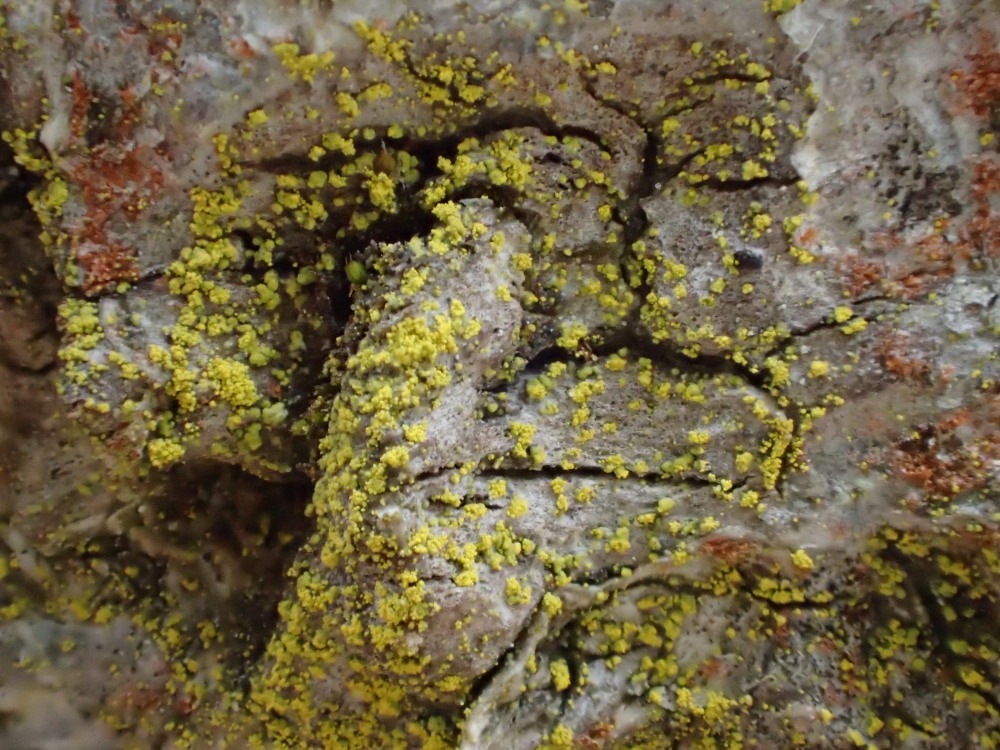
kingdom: Fungi
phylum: Ascomycota
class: Candelariomycetes
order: Candelariales
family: Candelariaceae
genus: Candelariella
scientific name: Candelariella reflexa
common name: grynskællet æggeblommelav
